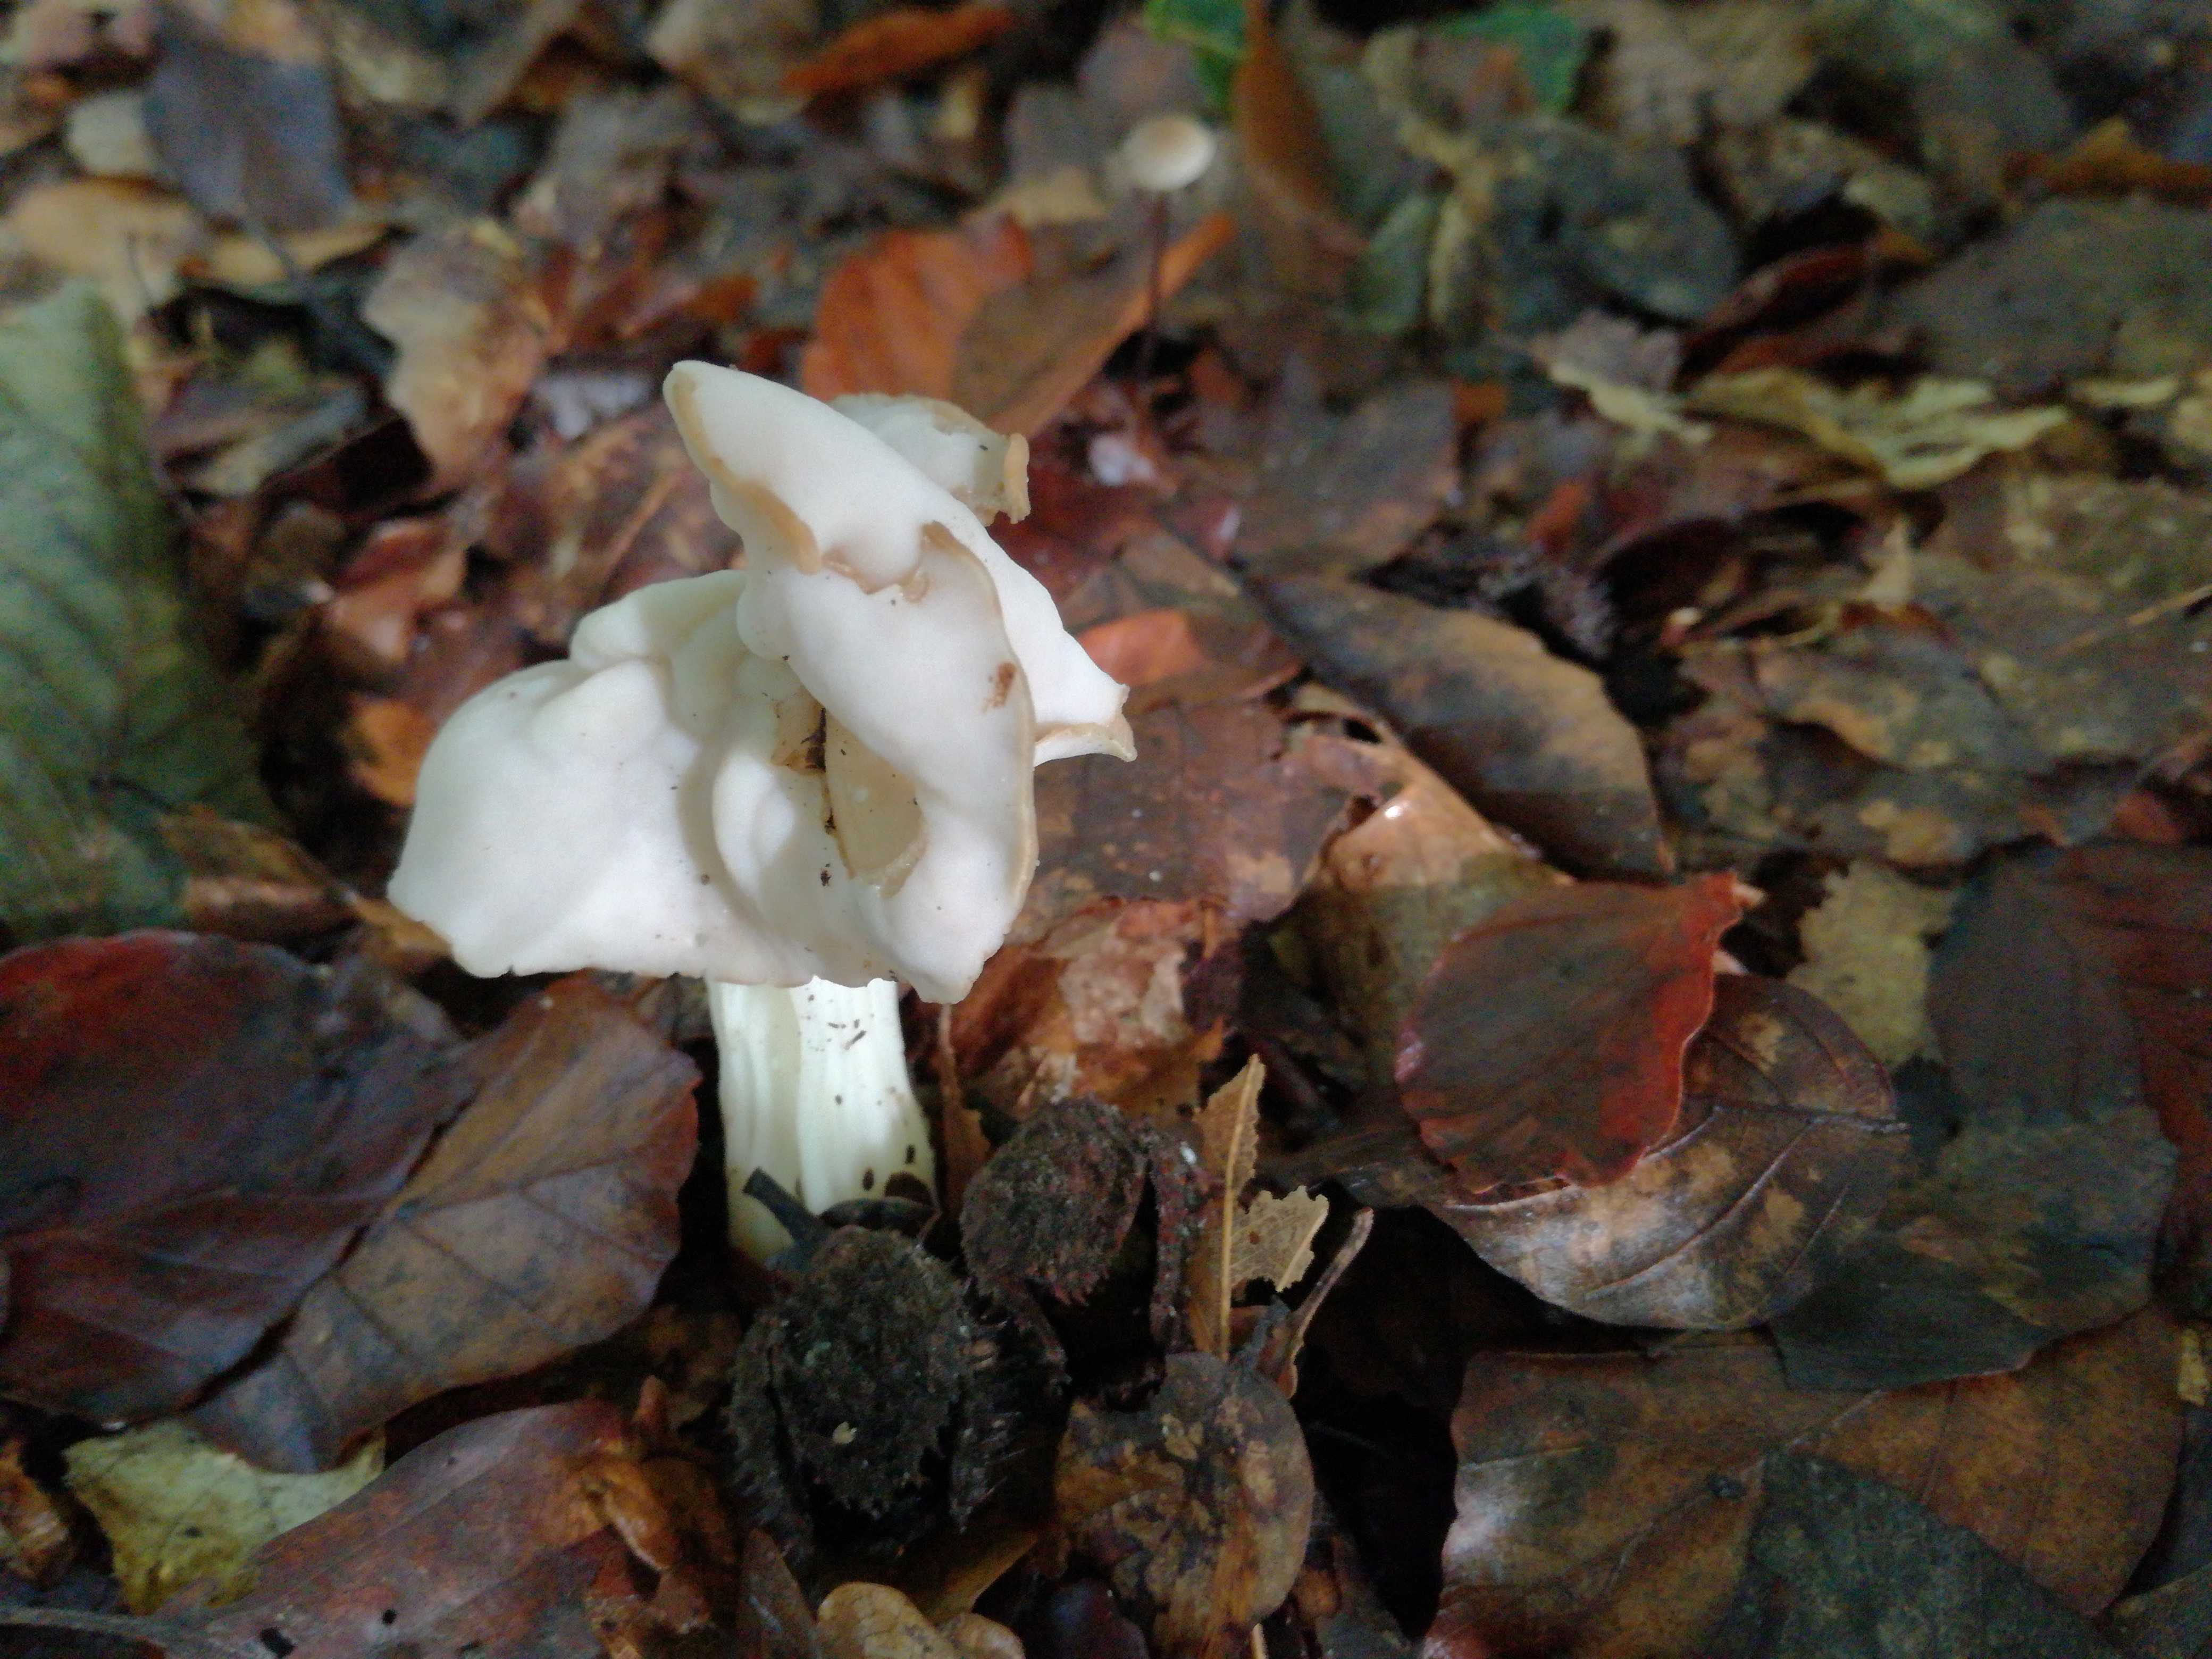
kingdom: Fungi
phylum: Ascomycota
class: Pezizomycetes
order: Pezizales
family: Helvellaceae
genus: Helvella
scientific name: Helvella crispa
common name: kruset foldhat
